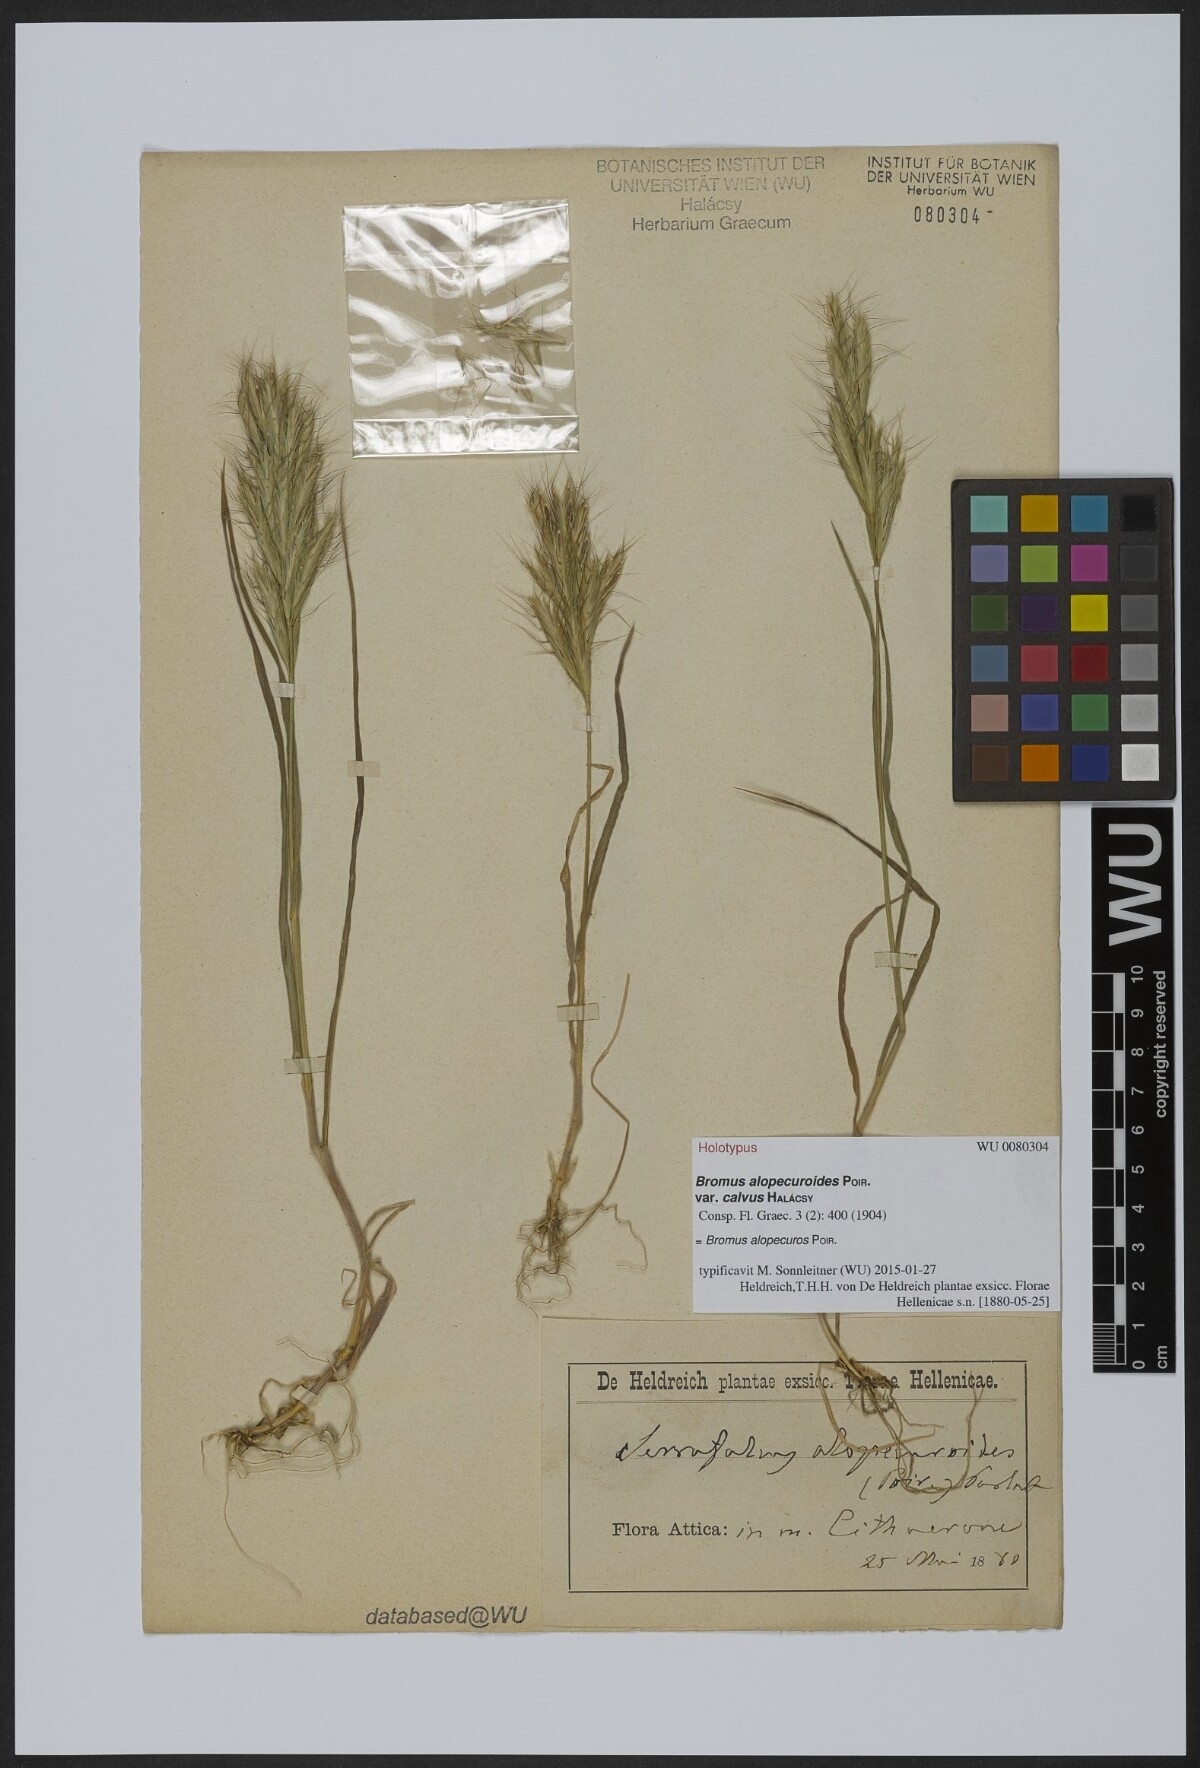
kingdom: Plantae
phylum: Tracheophyta
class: Liliopsida
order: Poales
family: Poaceae
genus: Bromus
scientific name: Bromus alopecuros
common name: Weedy brome
